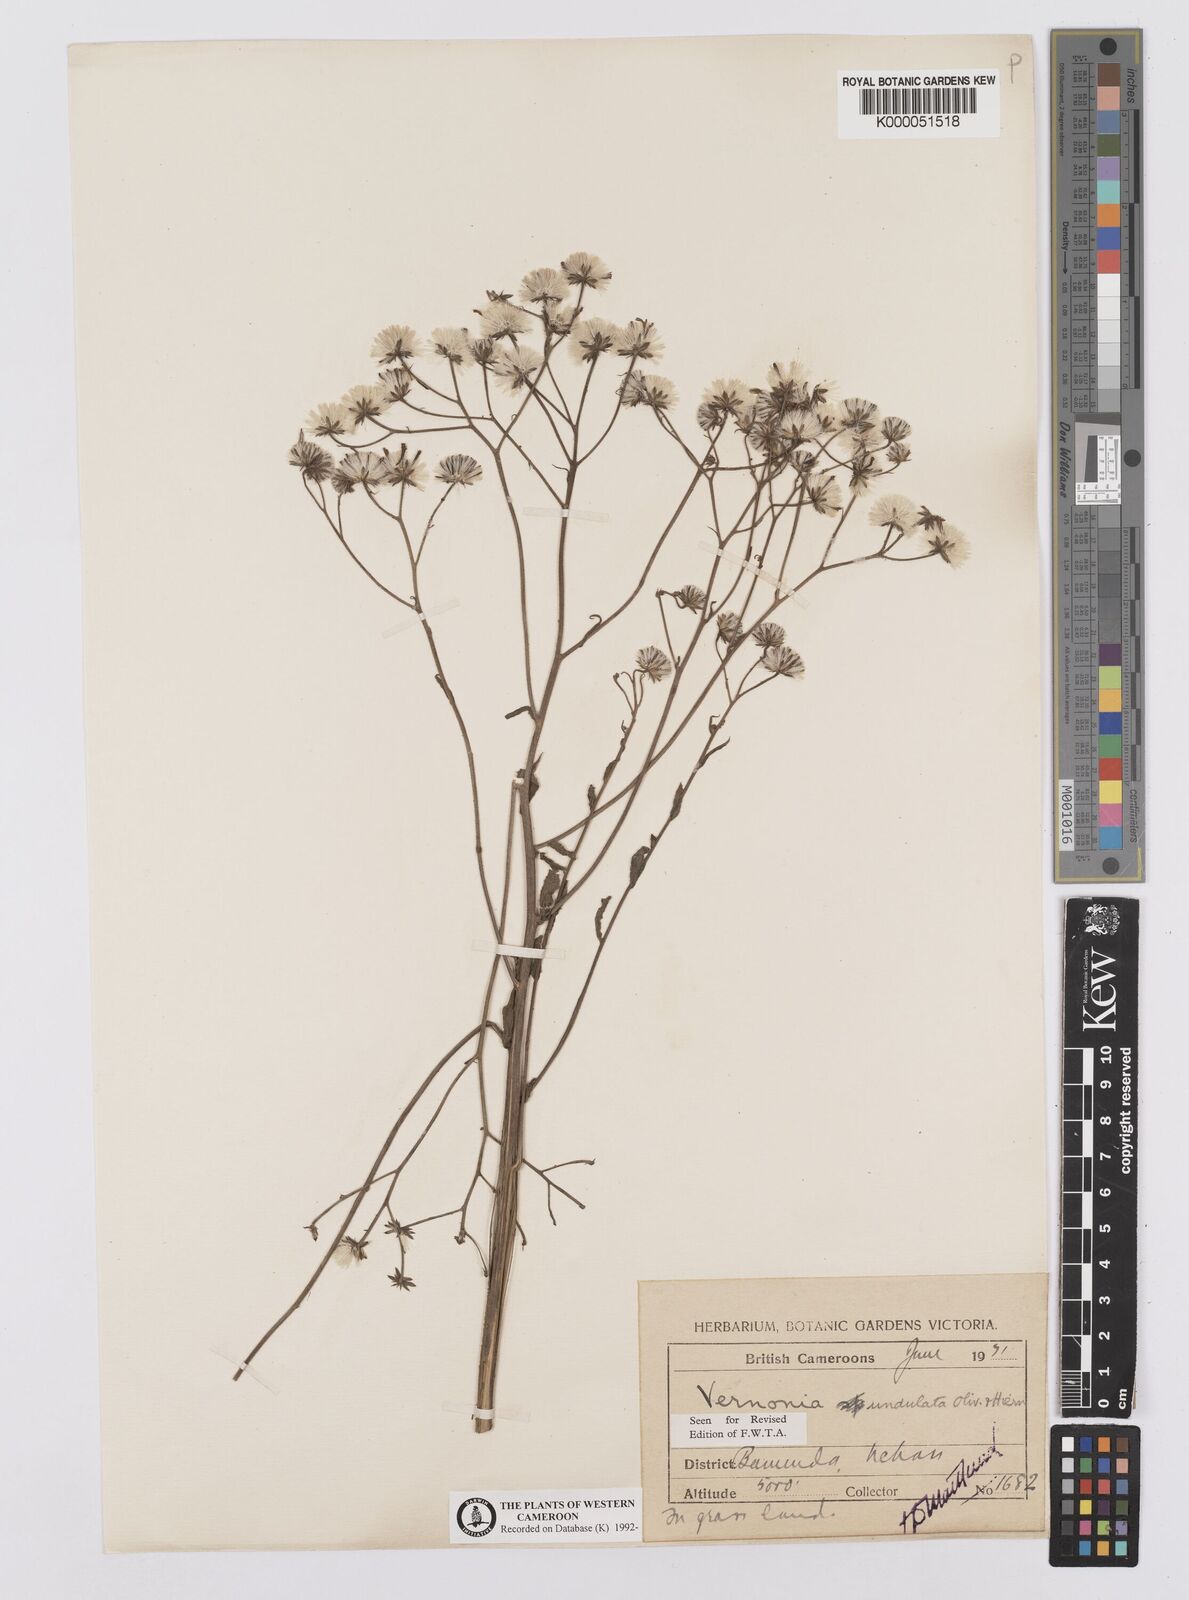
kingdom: Plantae
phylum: Tracheophyta
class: Magnoliopsida
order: Asterales
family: Asteraceae
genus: Vernonia
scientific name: Vernonia golungensis
